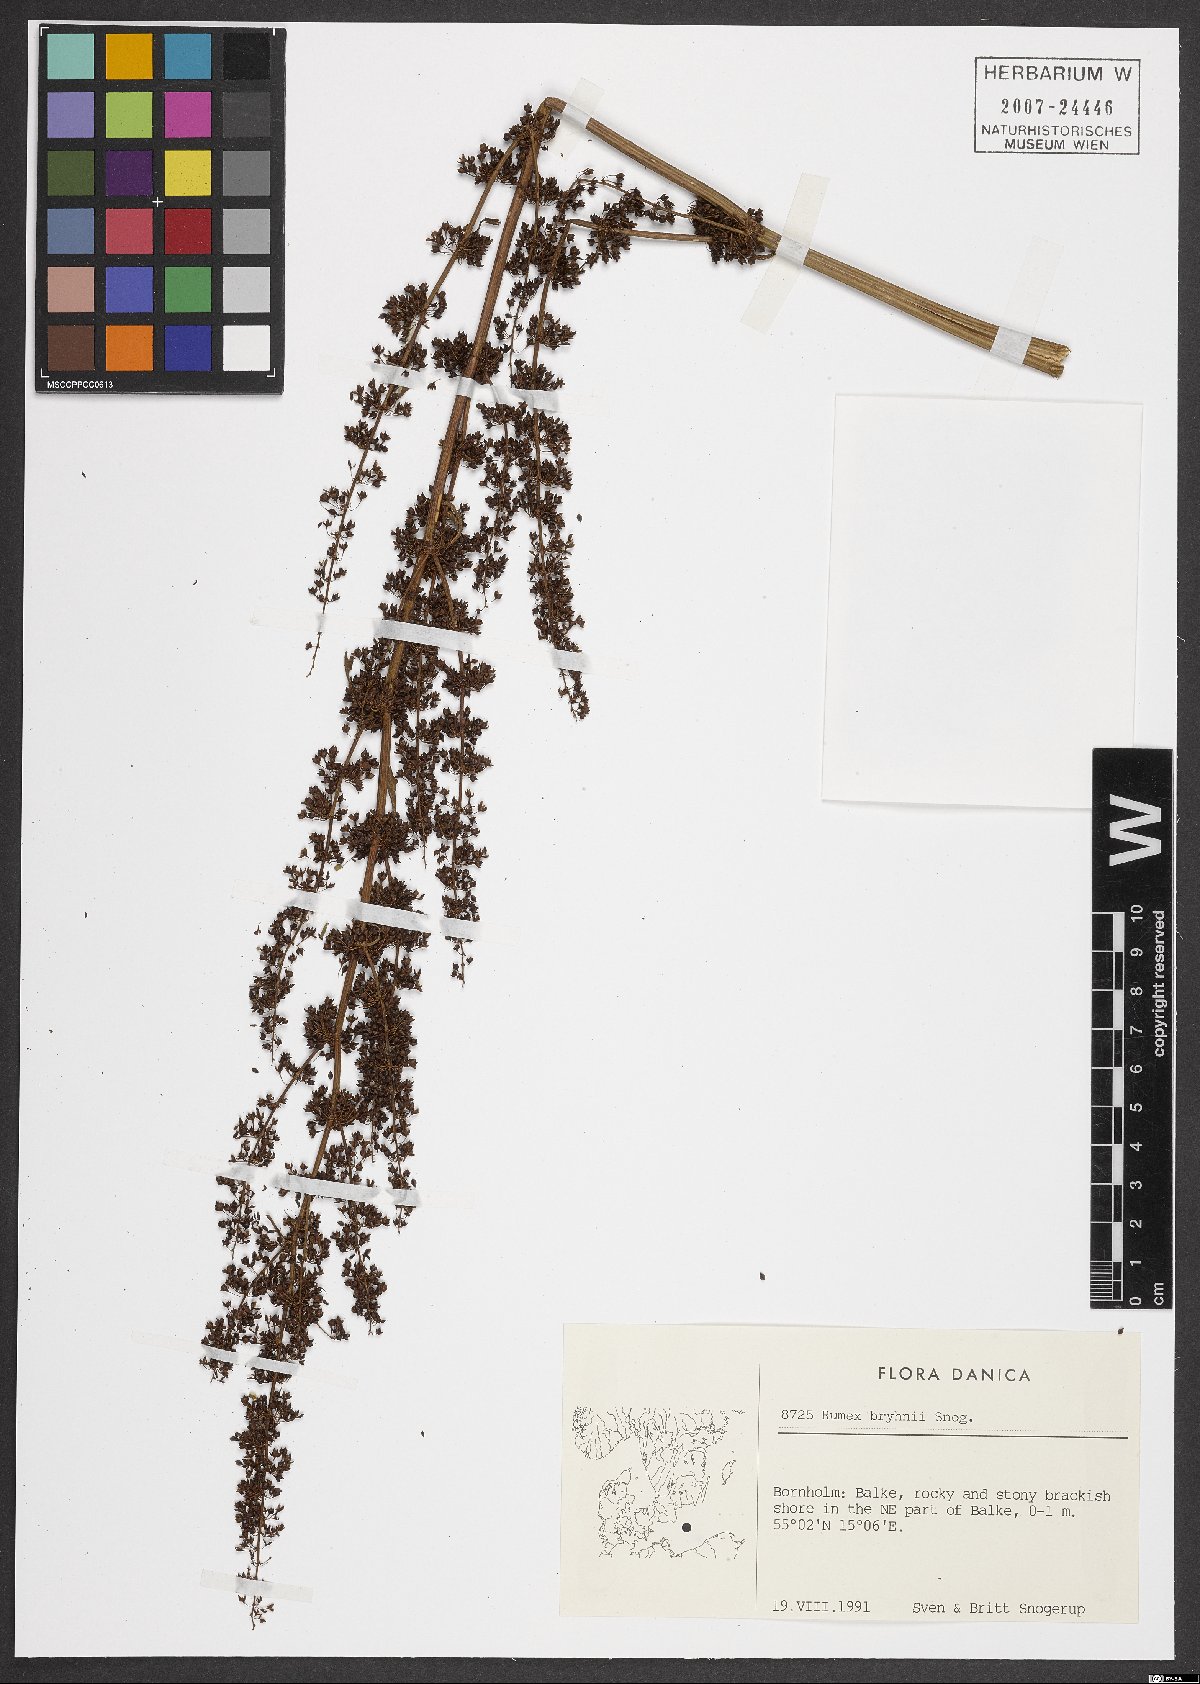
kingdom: Plantae
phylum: Tracheophyta
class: Magnoliopsida
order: Caryophyllales
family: Polygonaceae
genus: Rumex
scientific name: Rumex bryhnii
